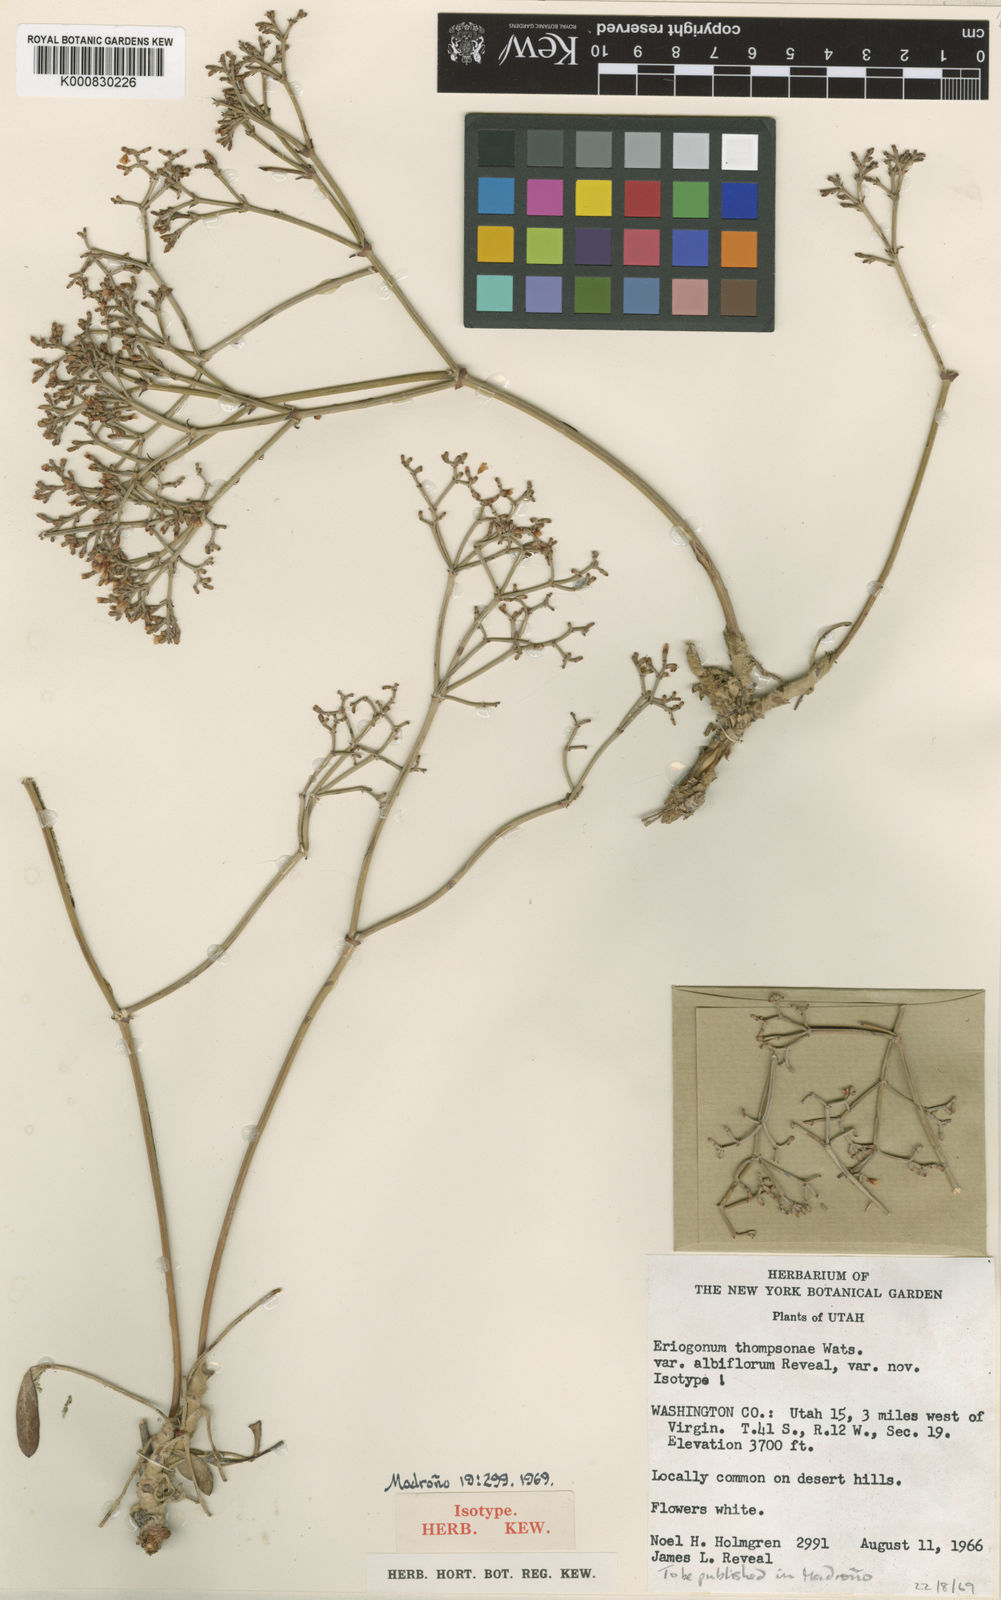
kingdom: Plantae
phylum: Tracheophyta
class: Magnoliopsida
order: Caryophyllales
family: Polygonaceae
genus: Eriogonum
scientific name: Eriogonum thompsoniae
